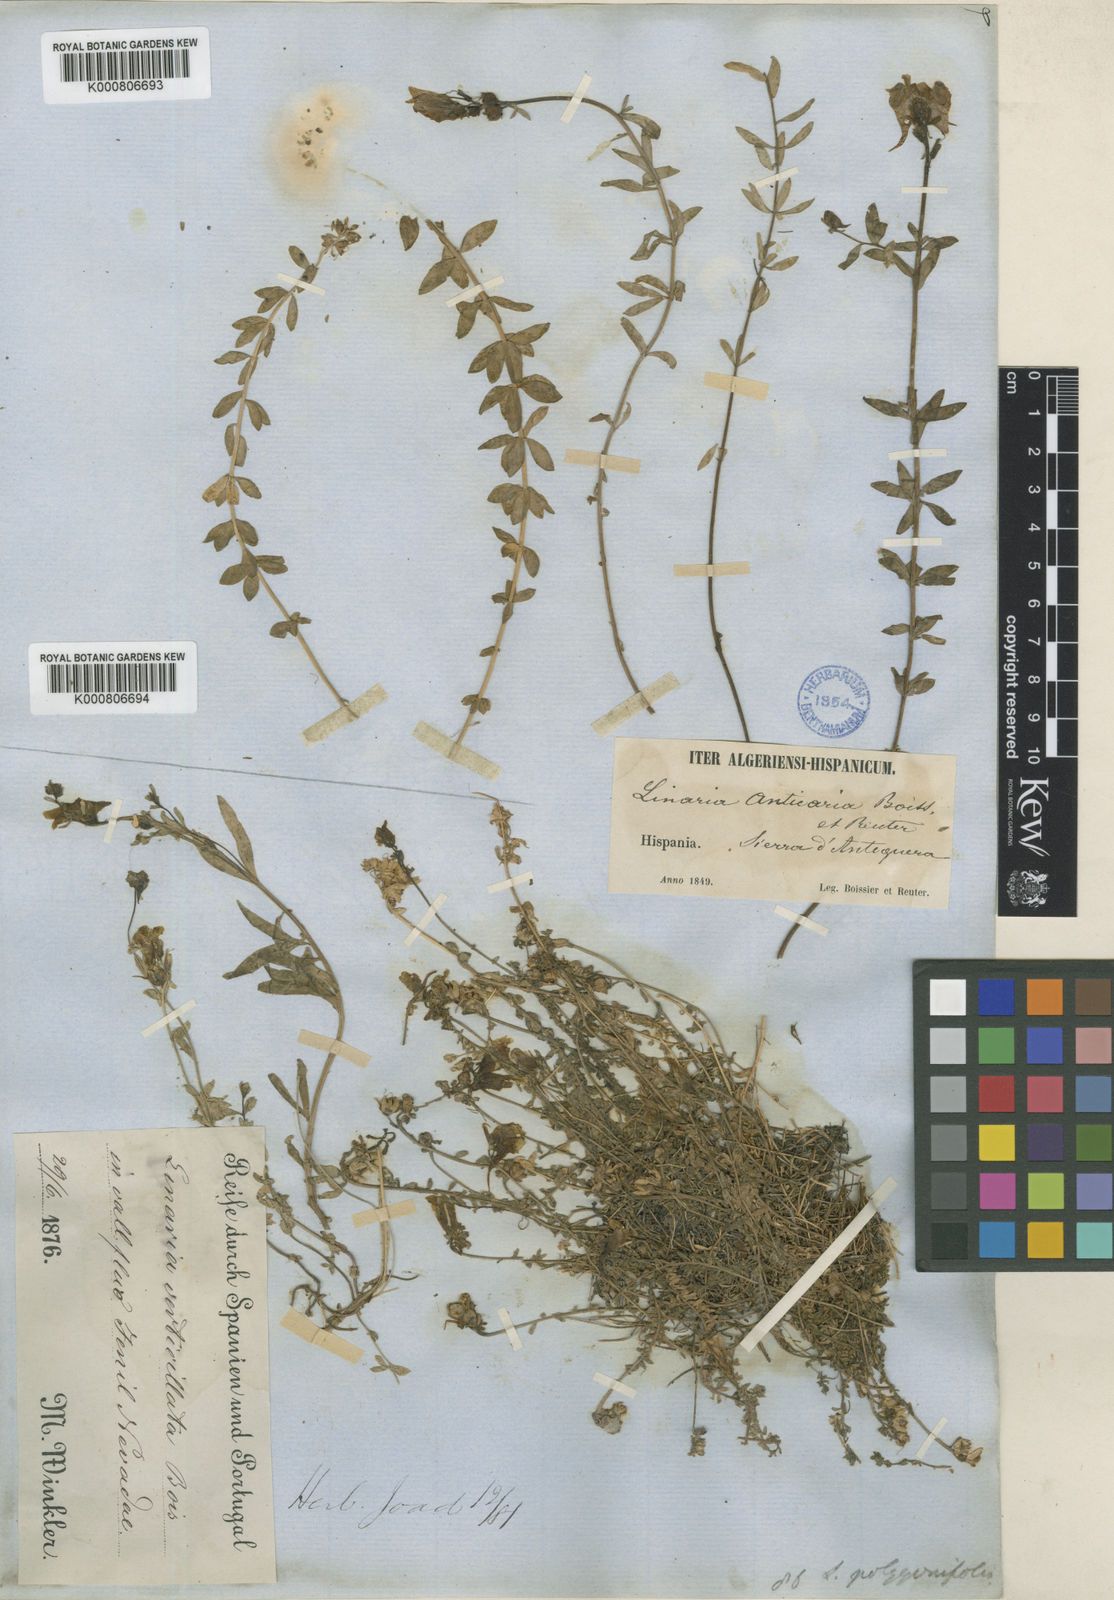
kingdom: Plantae
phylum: Tracheophyta
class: Magnoliopsida
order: Lamiales
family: Plantaginaceae
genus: Linaria
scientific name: Linaria verticillata
